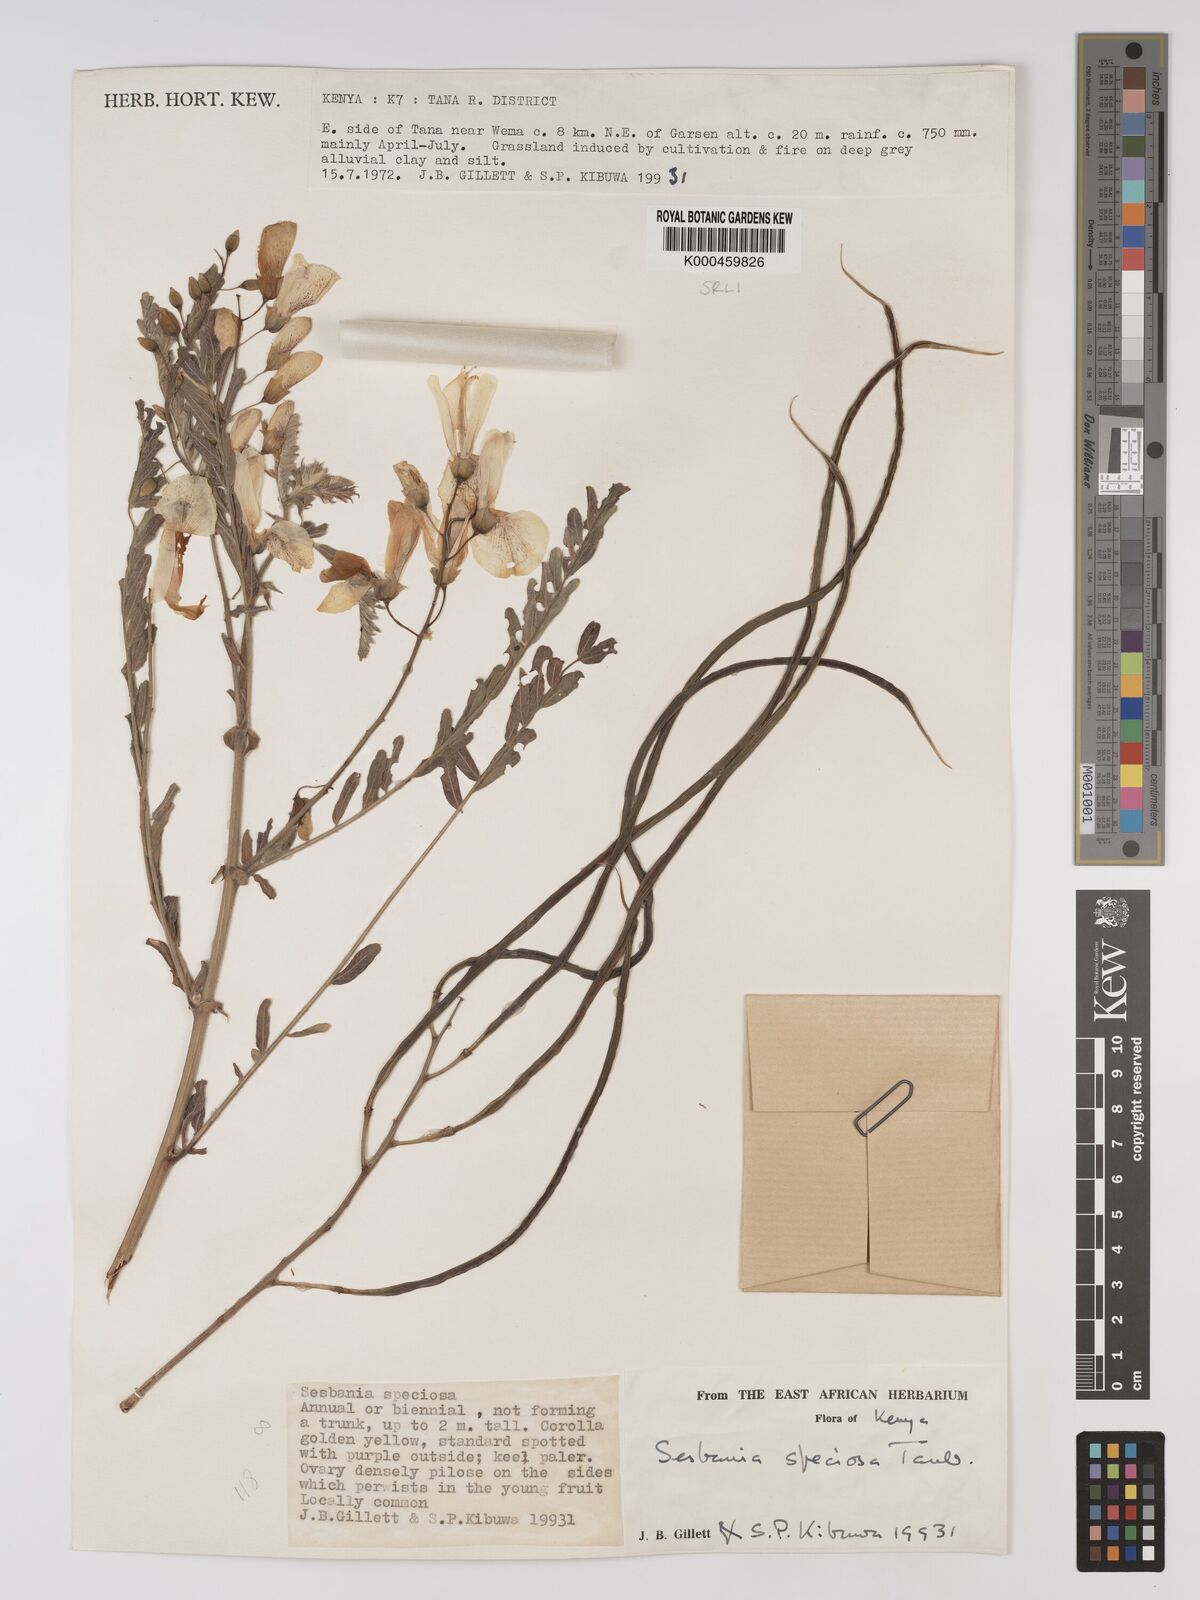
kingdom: Plantae
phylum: Tracheophyta
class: Magnoliopsida
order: Fabales
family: Fabaceae
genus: Sesbania
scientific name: Sesbania
